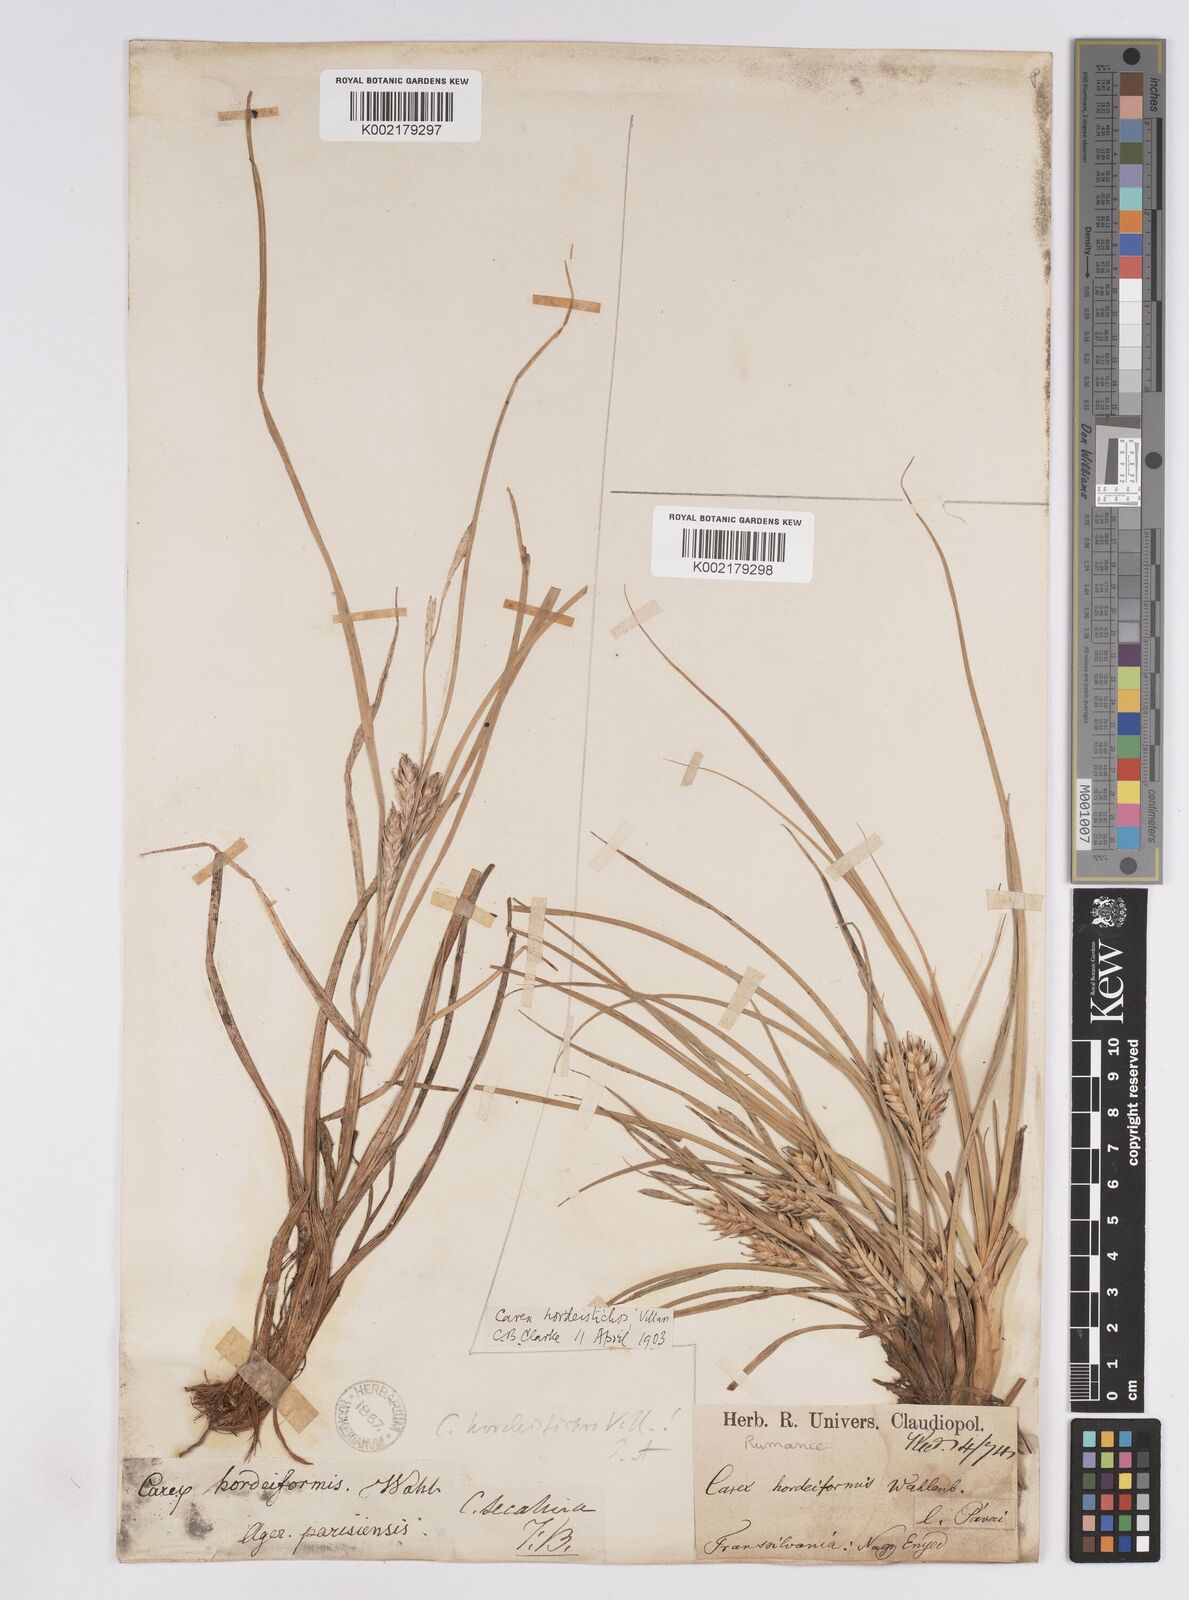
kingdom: Plantae
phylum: Tracheophyta
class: Liliopsida
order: Poales
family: Cyperaceae
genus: Carex
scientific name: Carex hordeistichos
